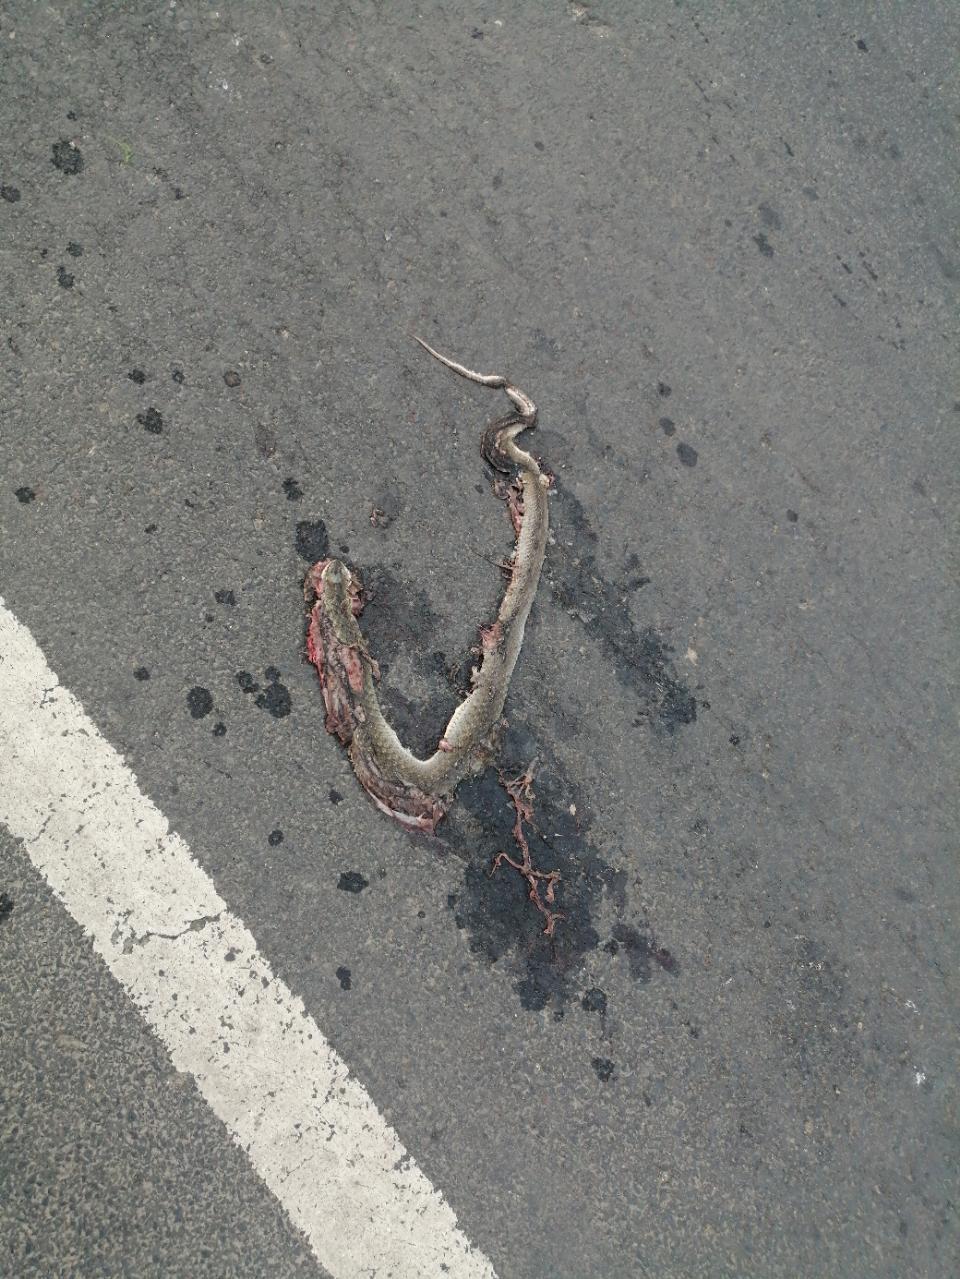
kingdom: Animalia
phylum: Chordata
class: Squamata
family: Colubridae
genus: Fowlea
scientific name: Fowlea piscator
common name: Asiatic water snake
